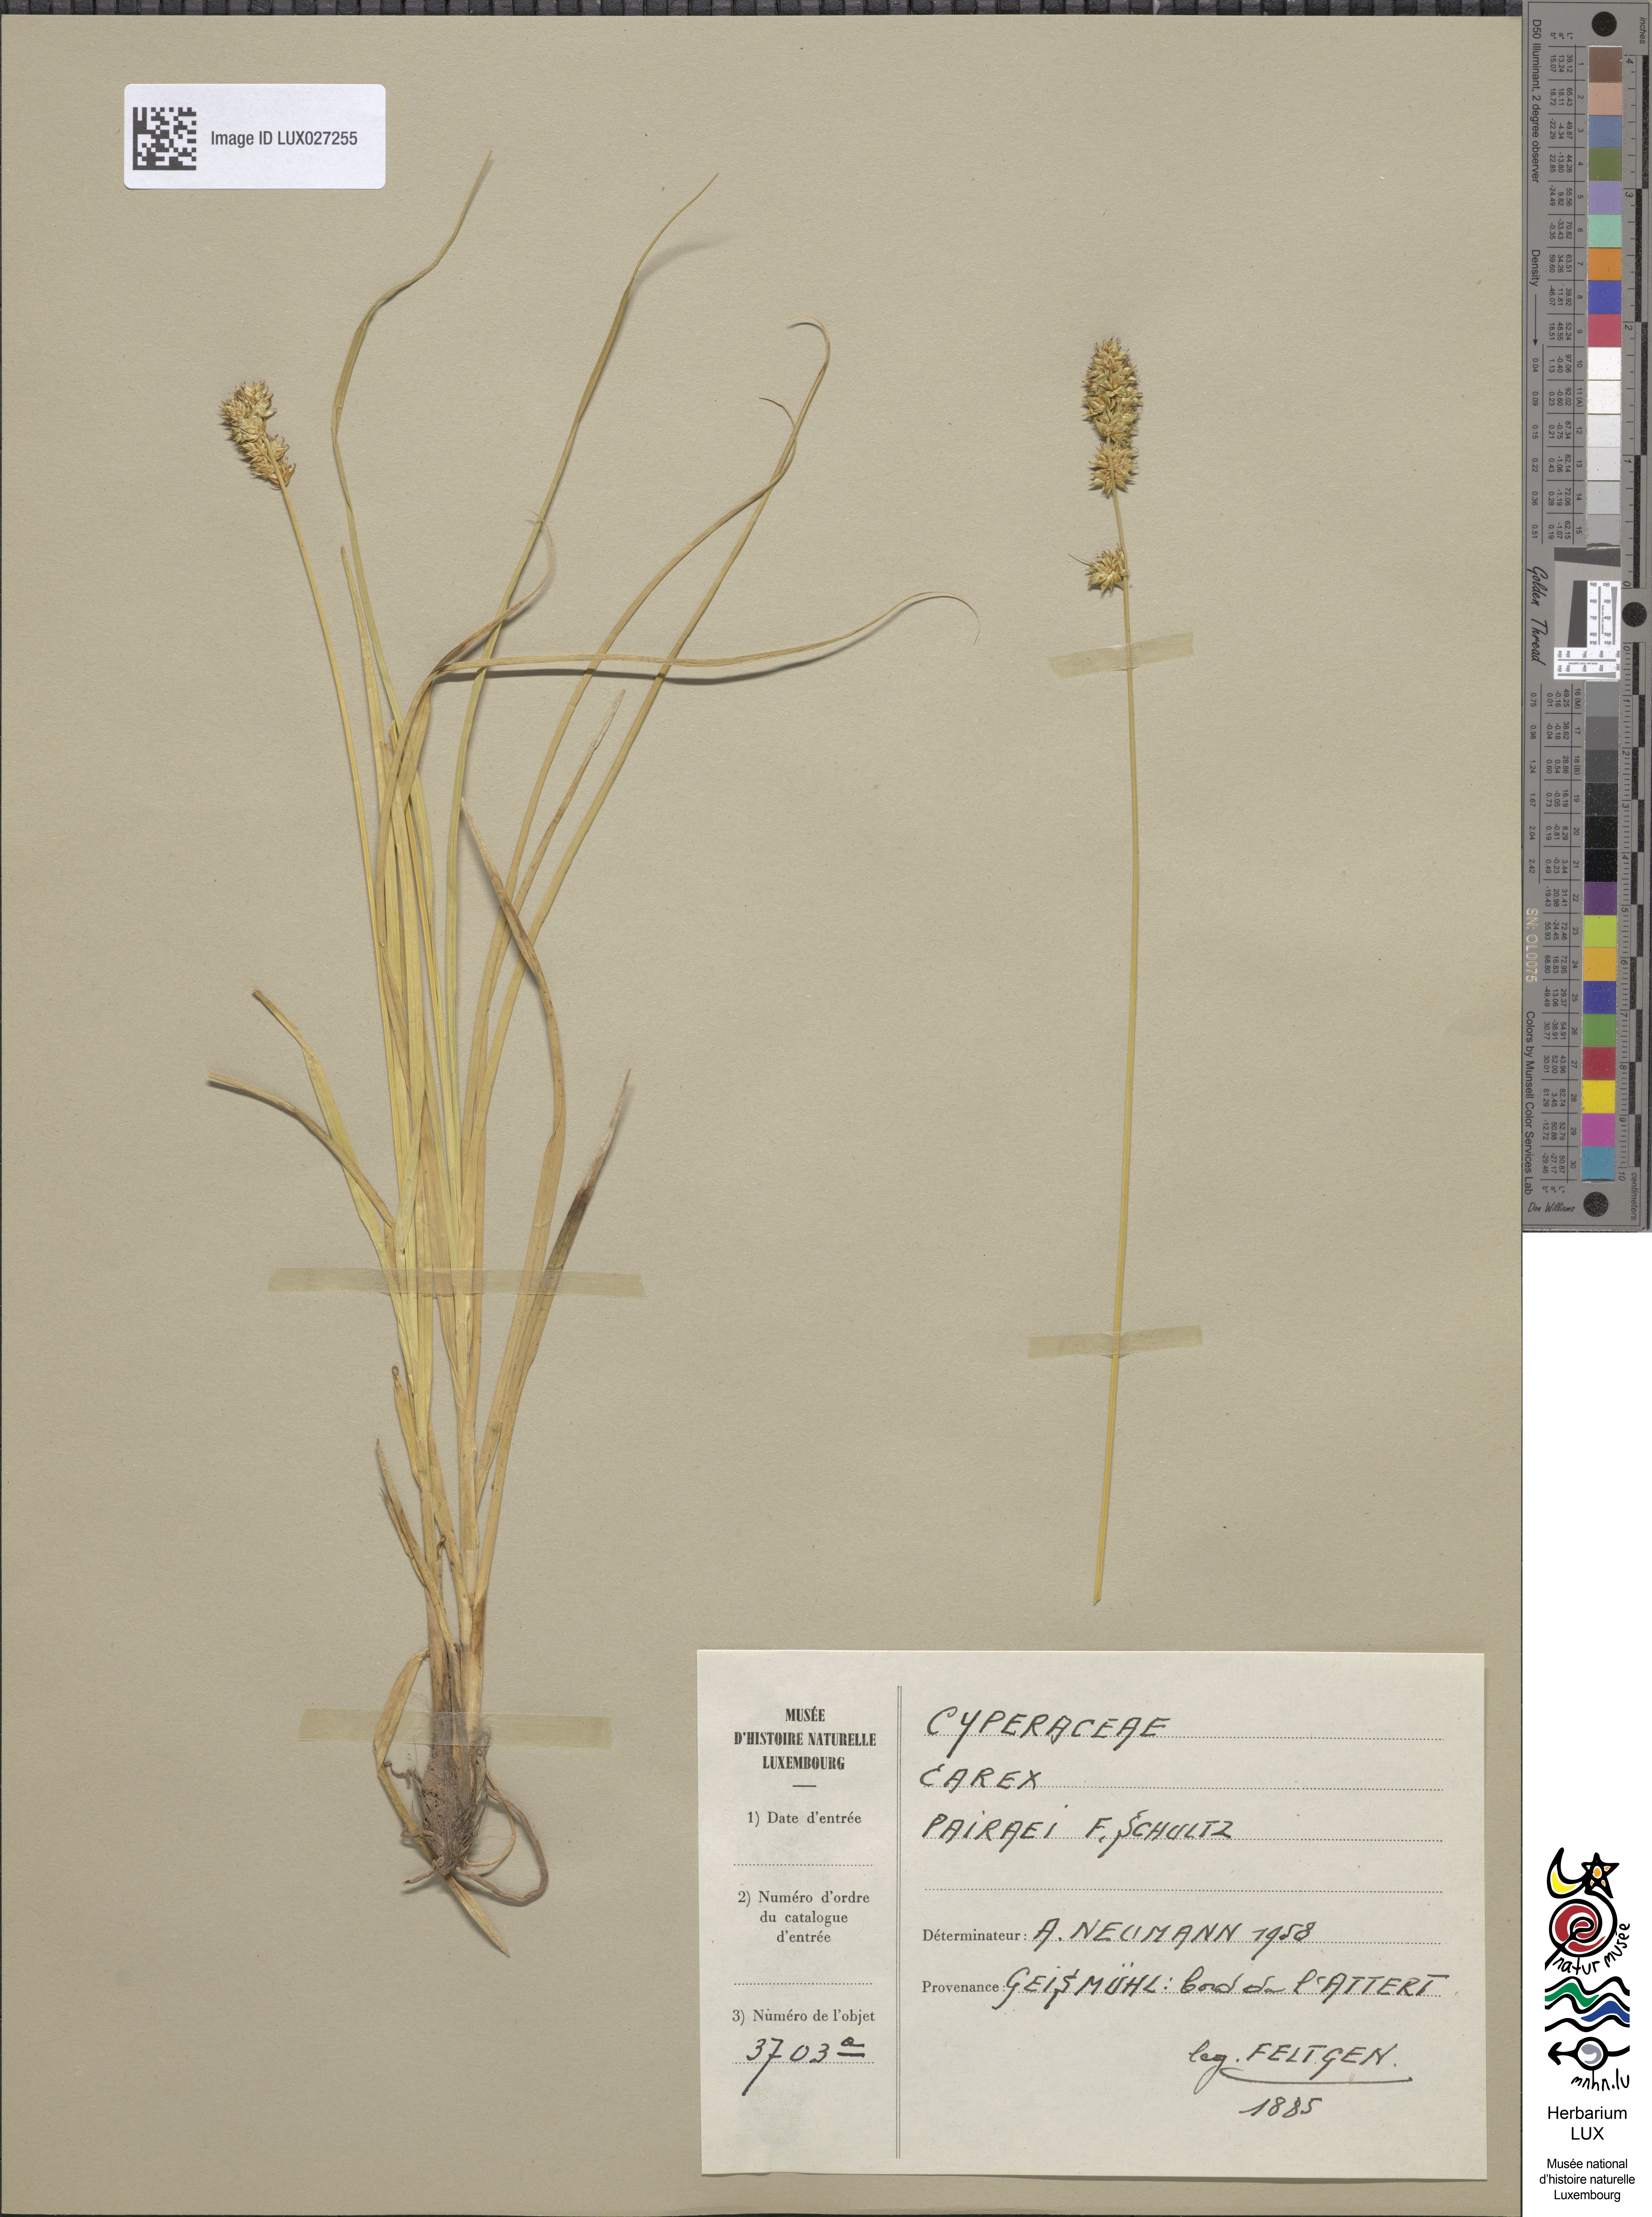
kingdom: Plantae
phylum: Tracheophyta
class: Liliopsida
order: Poales
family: Cyperaceae
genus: Carex
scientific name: Carex pairae
